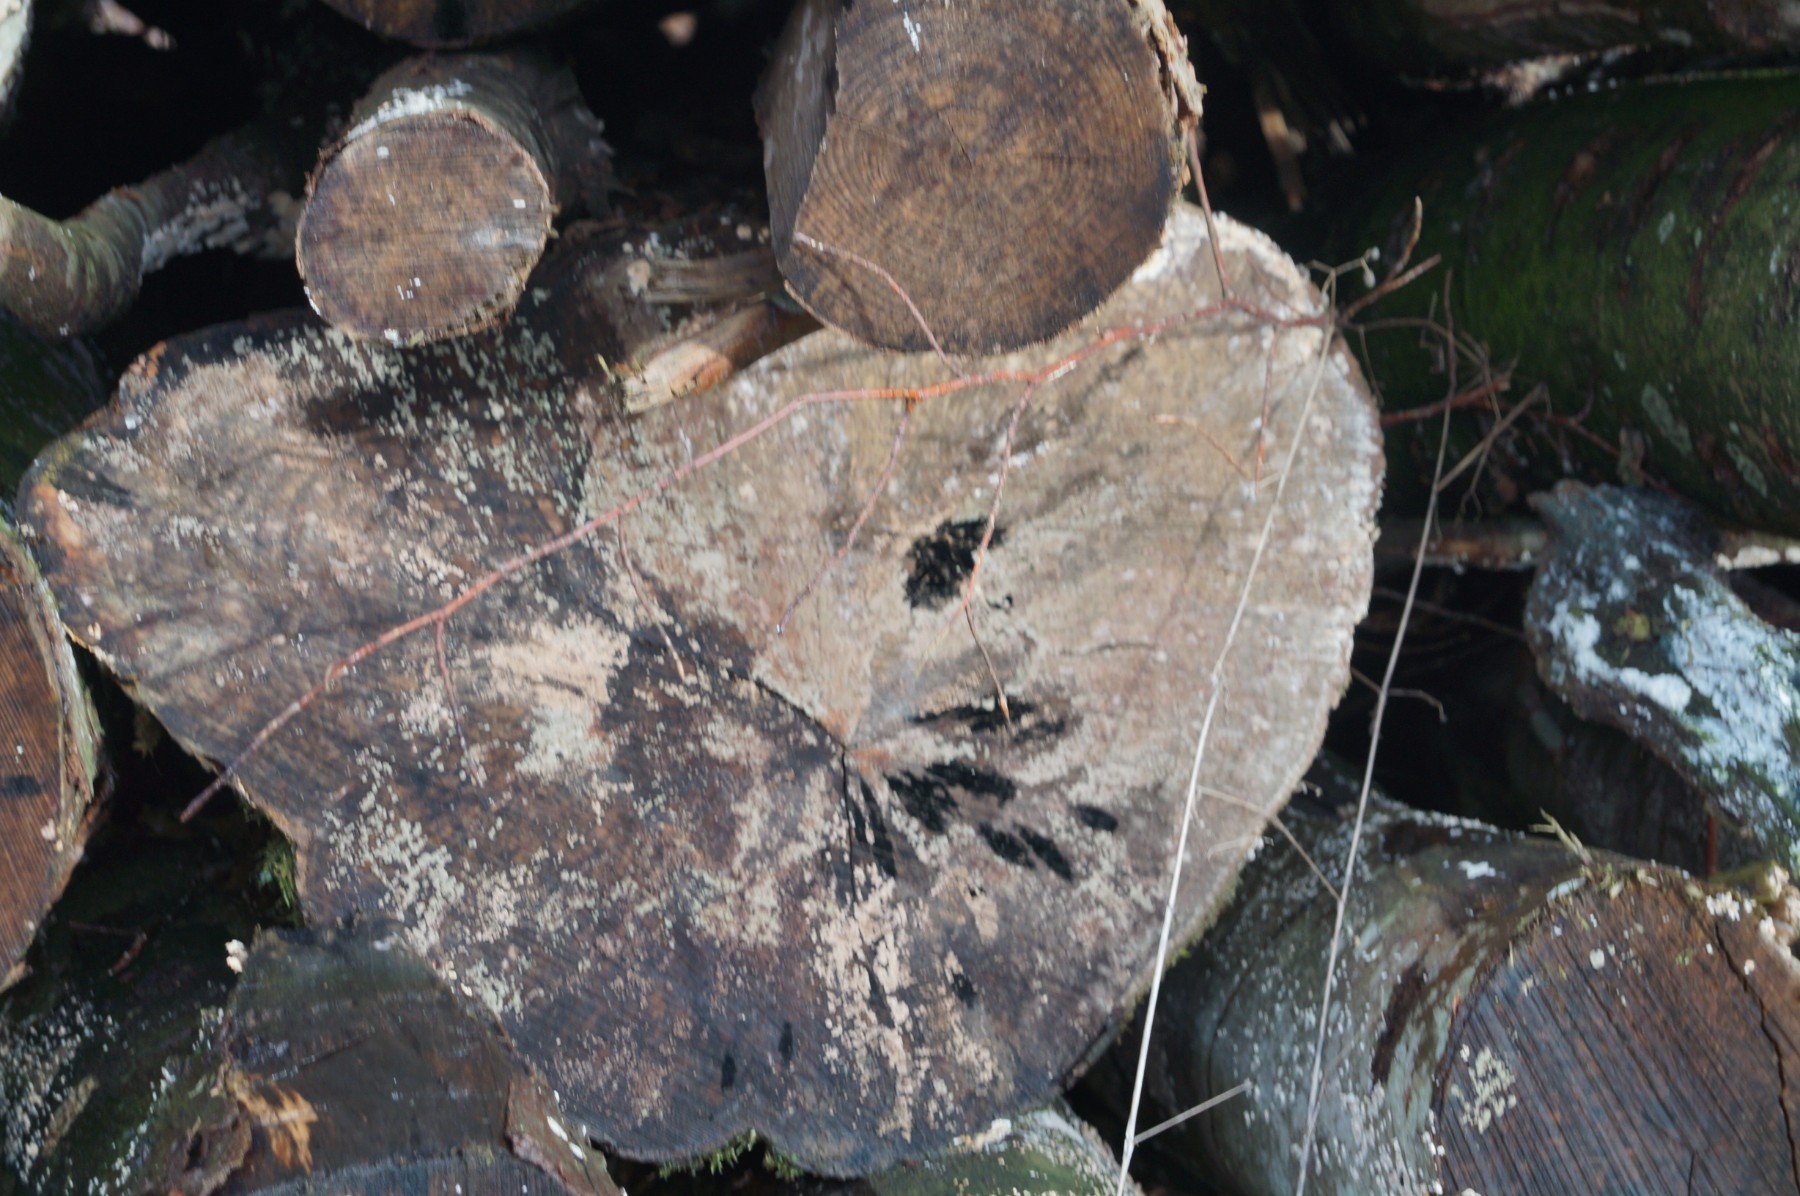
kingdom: Fungi
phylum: Ascomycota
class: Leotiomycetes
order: Helotiales
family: Helotiaceae
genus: Bispora
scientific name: Bispora pallescens
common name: måtte-snitskive
